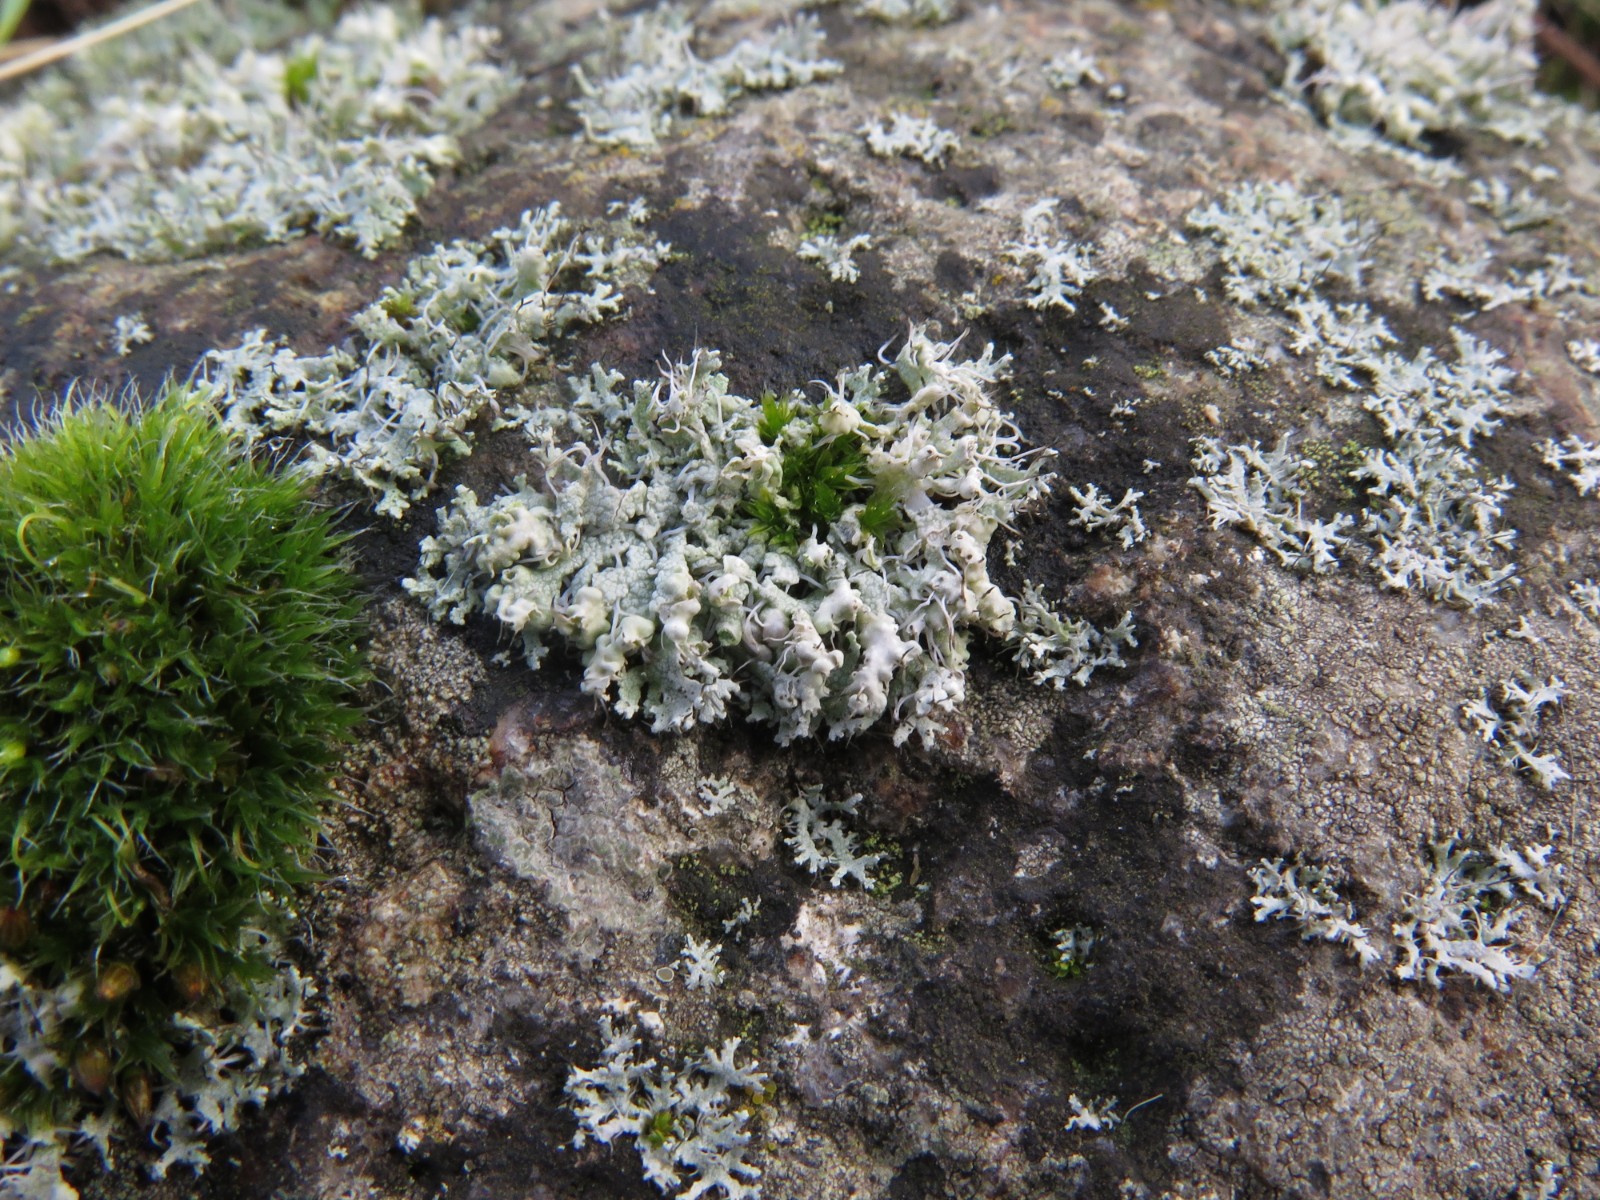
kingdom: Fungi
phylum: Ascomycota
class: Lecanoromycetes
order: Caliciales
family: Physciaceae
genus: Physcia
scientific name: Physcia adscendens
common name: hætte-rosetlav
